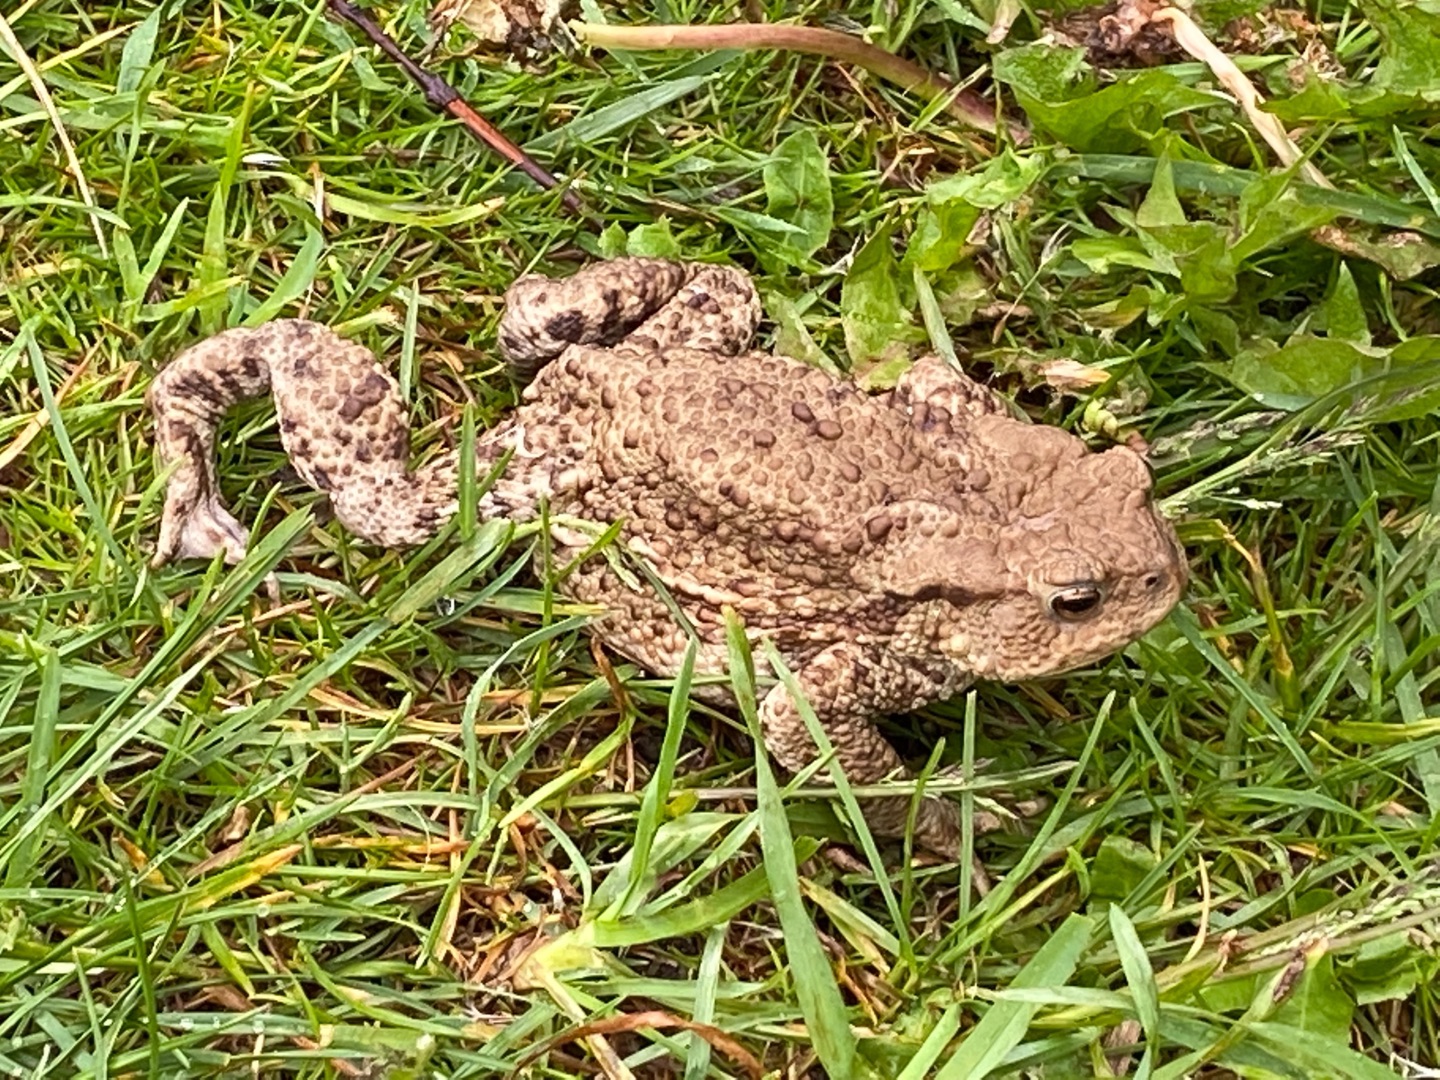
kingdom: Animalia
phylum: Chordata
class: Amphibia
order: Anura
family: Bufonidae
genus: Bufo
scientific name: Bufo bufo
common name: Skrubtudse
